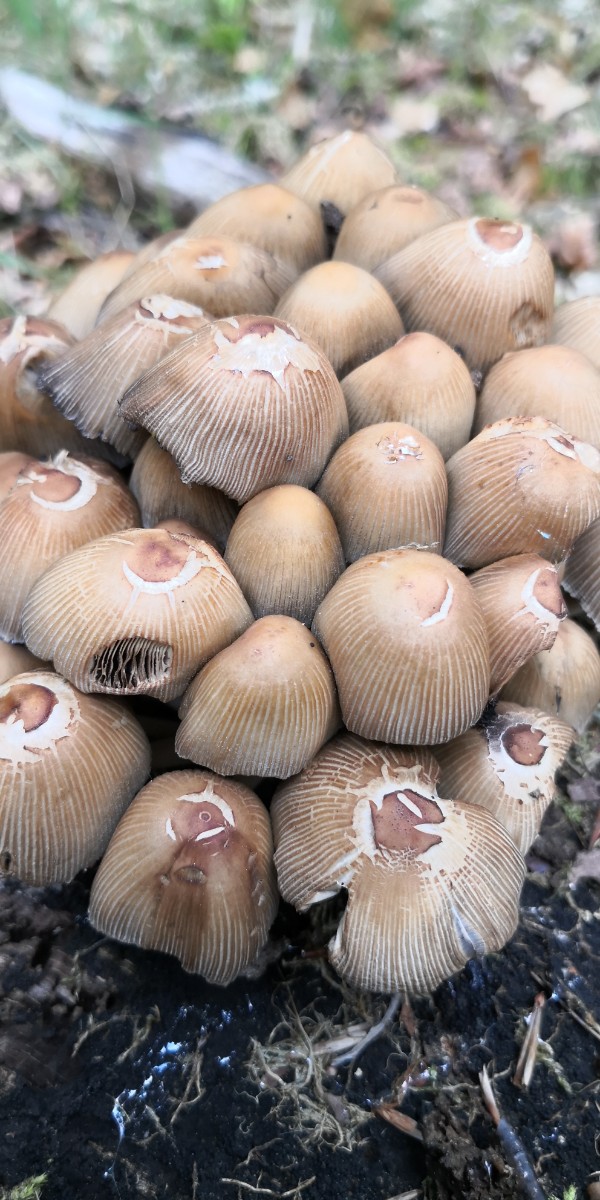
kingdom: Fungi
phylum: Basidiomycota
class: Agaricomycetes
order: Agaricales
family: Psathyrellaceae
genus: Coprinellus
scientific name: Coprinellus micaceus
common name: glimmer-blækhat
